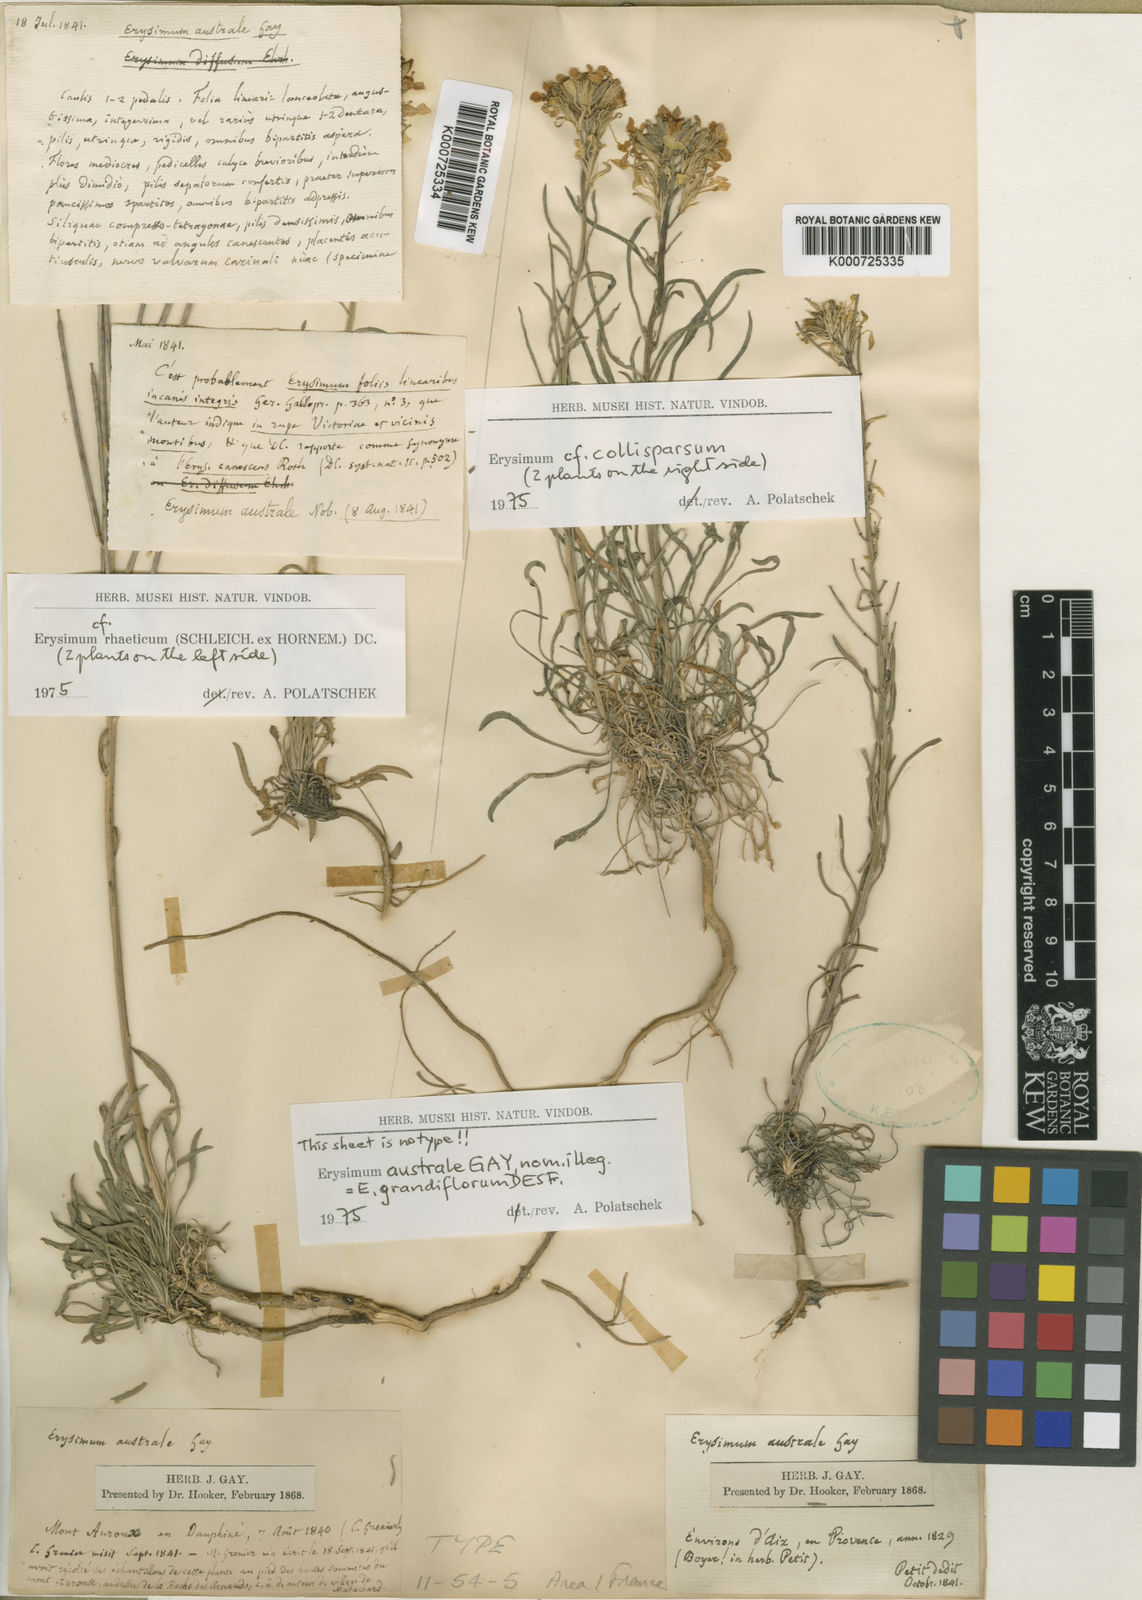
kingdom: Plantae
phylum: Tracheophyta
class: Magnoliopsida
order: Brassicales
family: Brassicaceae
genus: Erysimum
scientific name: Erysimum duriaei
